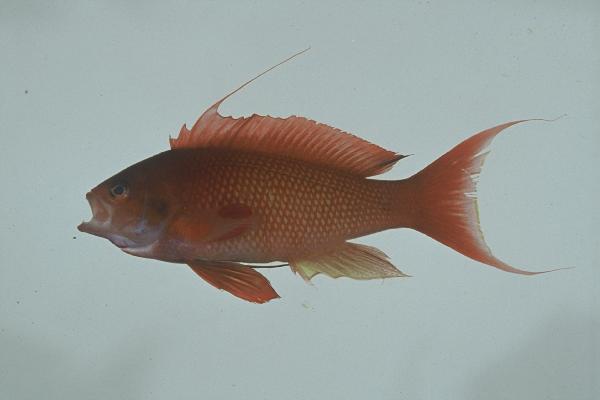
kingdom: Animalia
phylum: Chordata
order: Perciformes
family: Serranidae
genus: Pseudanthias
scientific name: Pseudanthias squamipinnis
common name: Scalefin anthias
